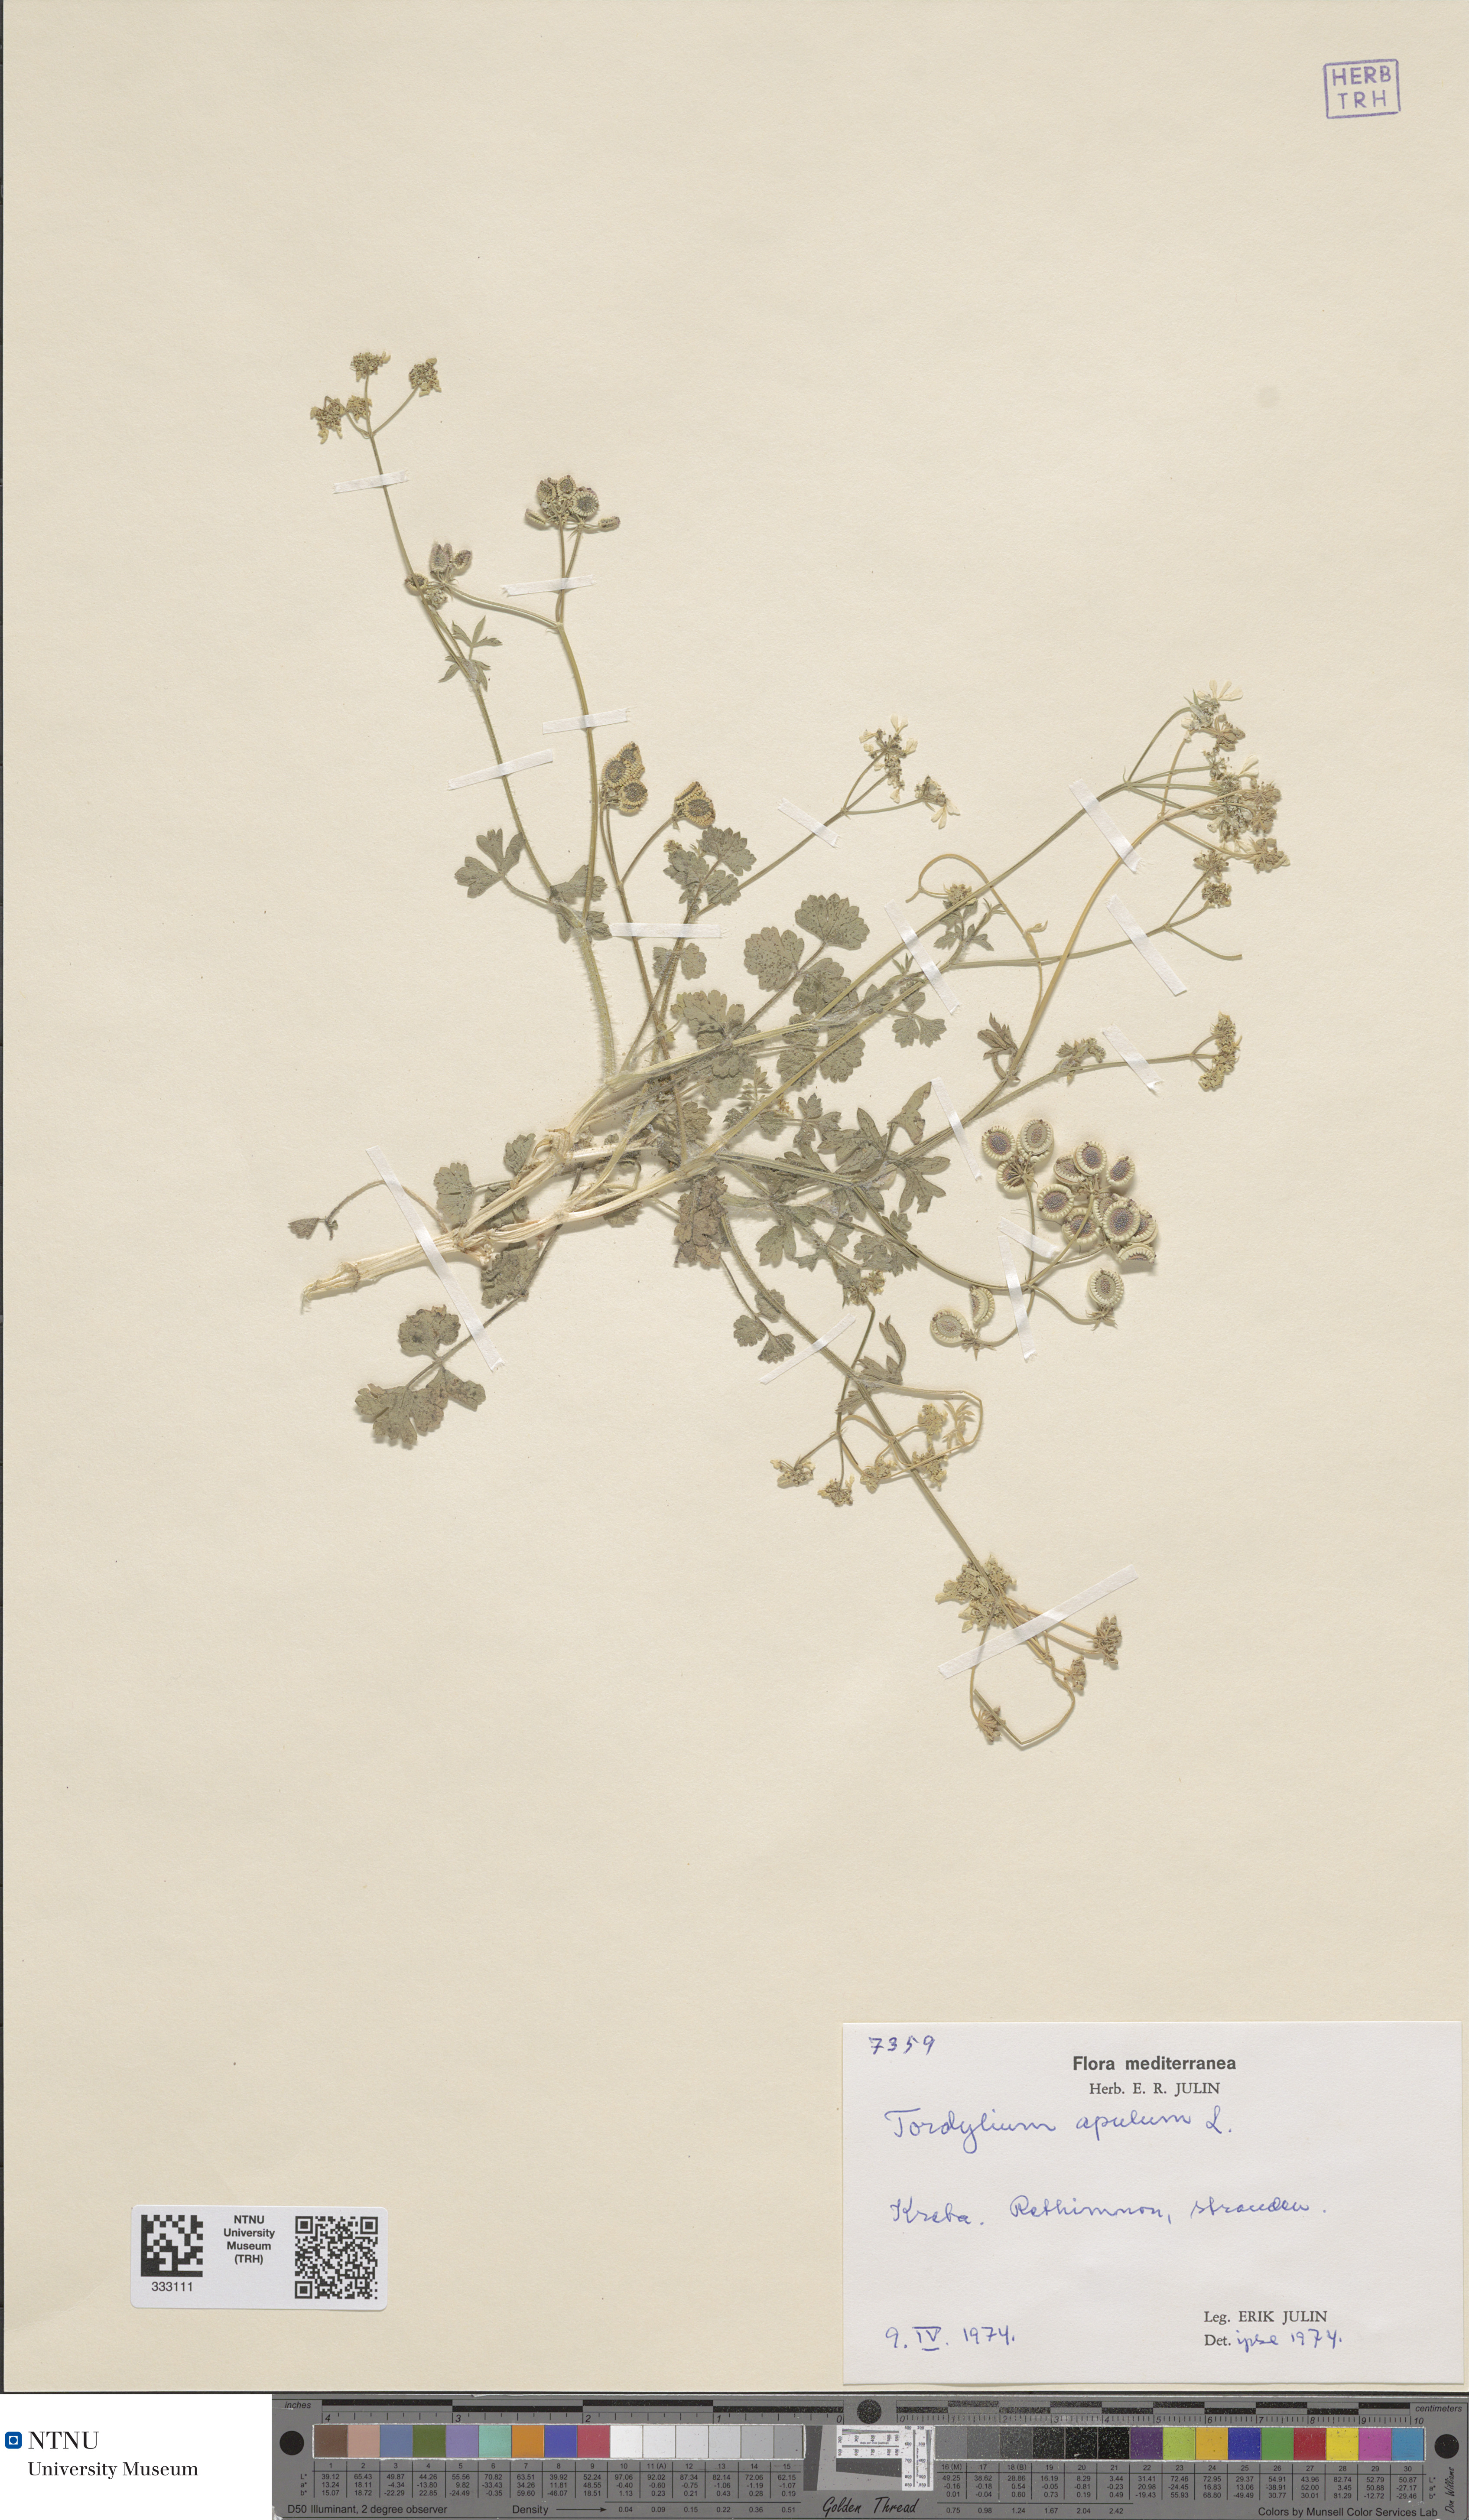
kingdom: Plantae
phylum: Tracheophyta
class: Magnoliopsida
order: Apiales
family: Apiaceae
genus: Tordylium
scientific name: Tordylium apulum
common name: Mediterranean hartwort
